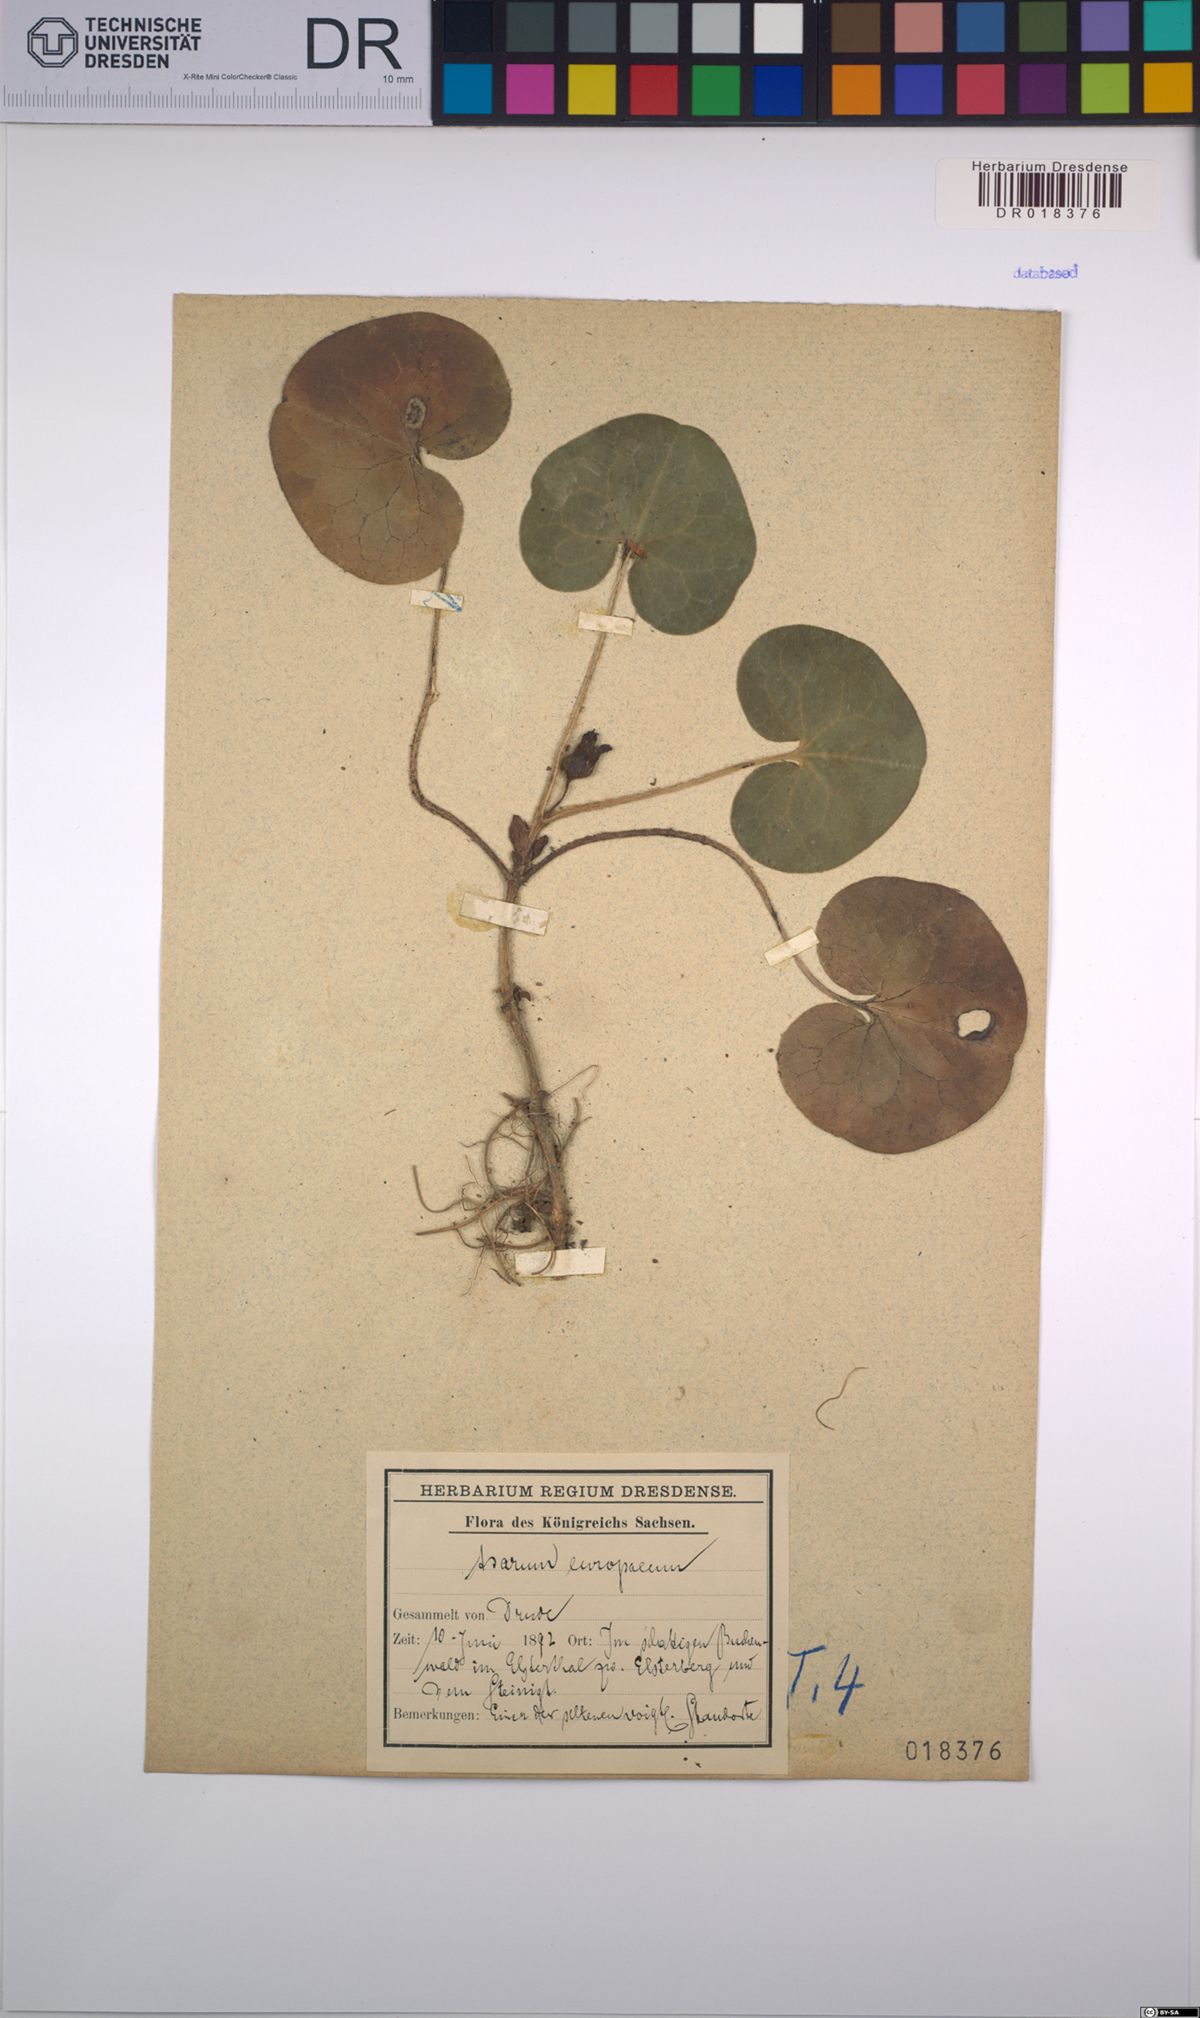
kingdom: Plantae
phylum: Tracheophyta
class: Magnoliopsida
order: Piperales
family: Aristolochiaceae
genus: Asarum
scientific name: Asarum europaeum
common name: Asarabacca
